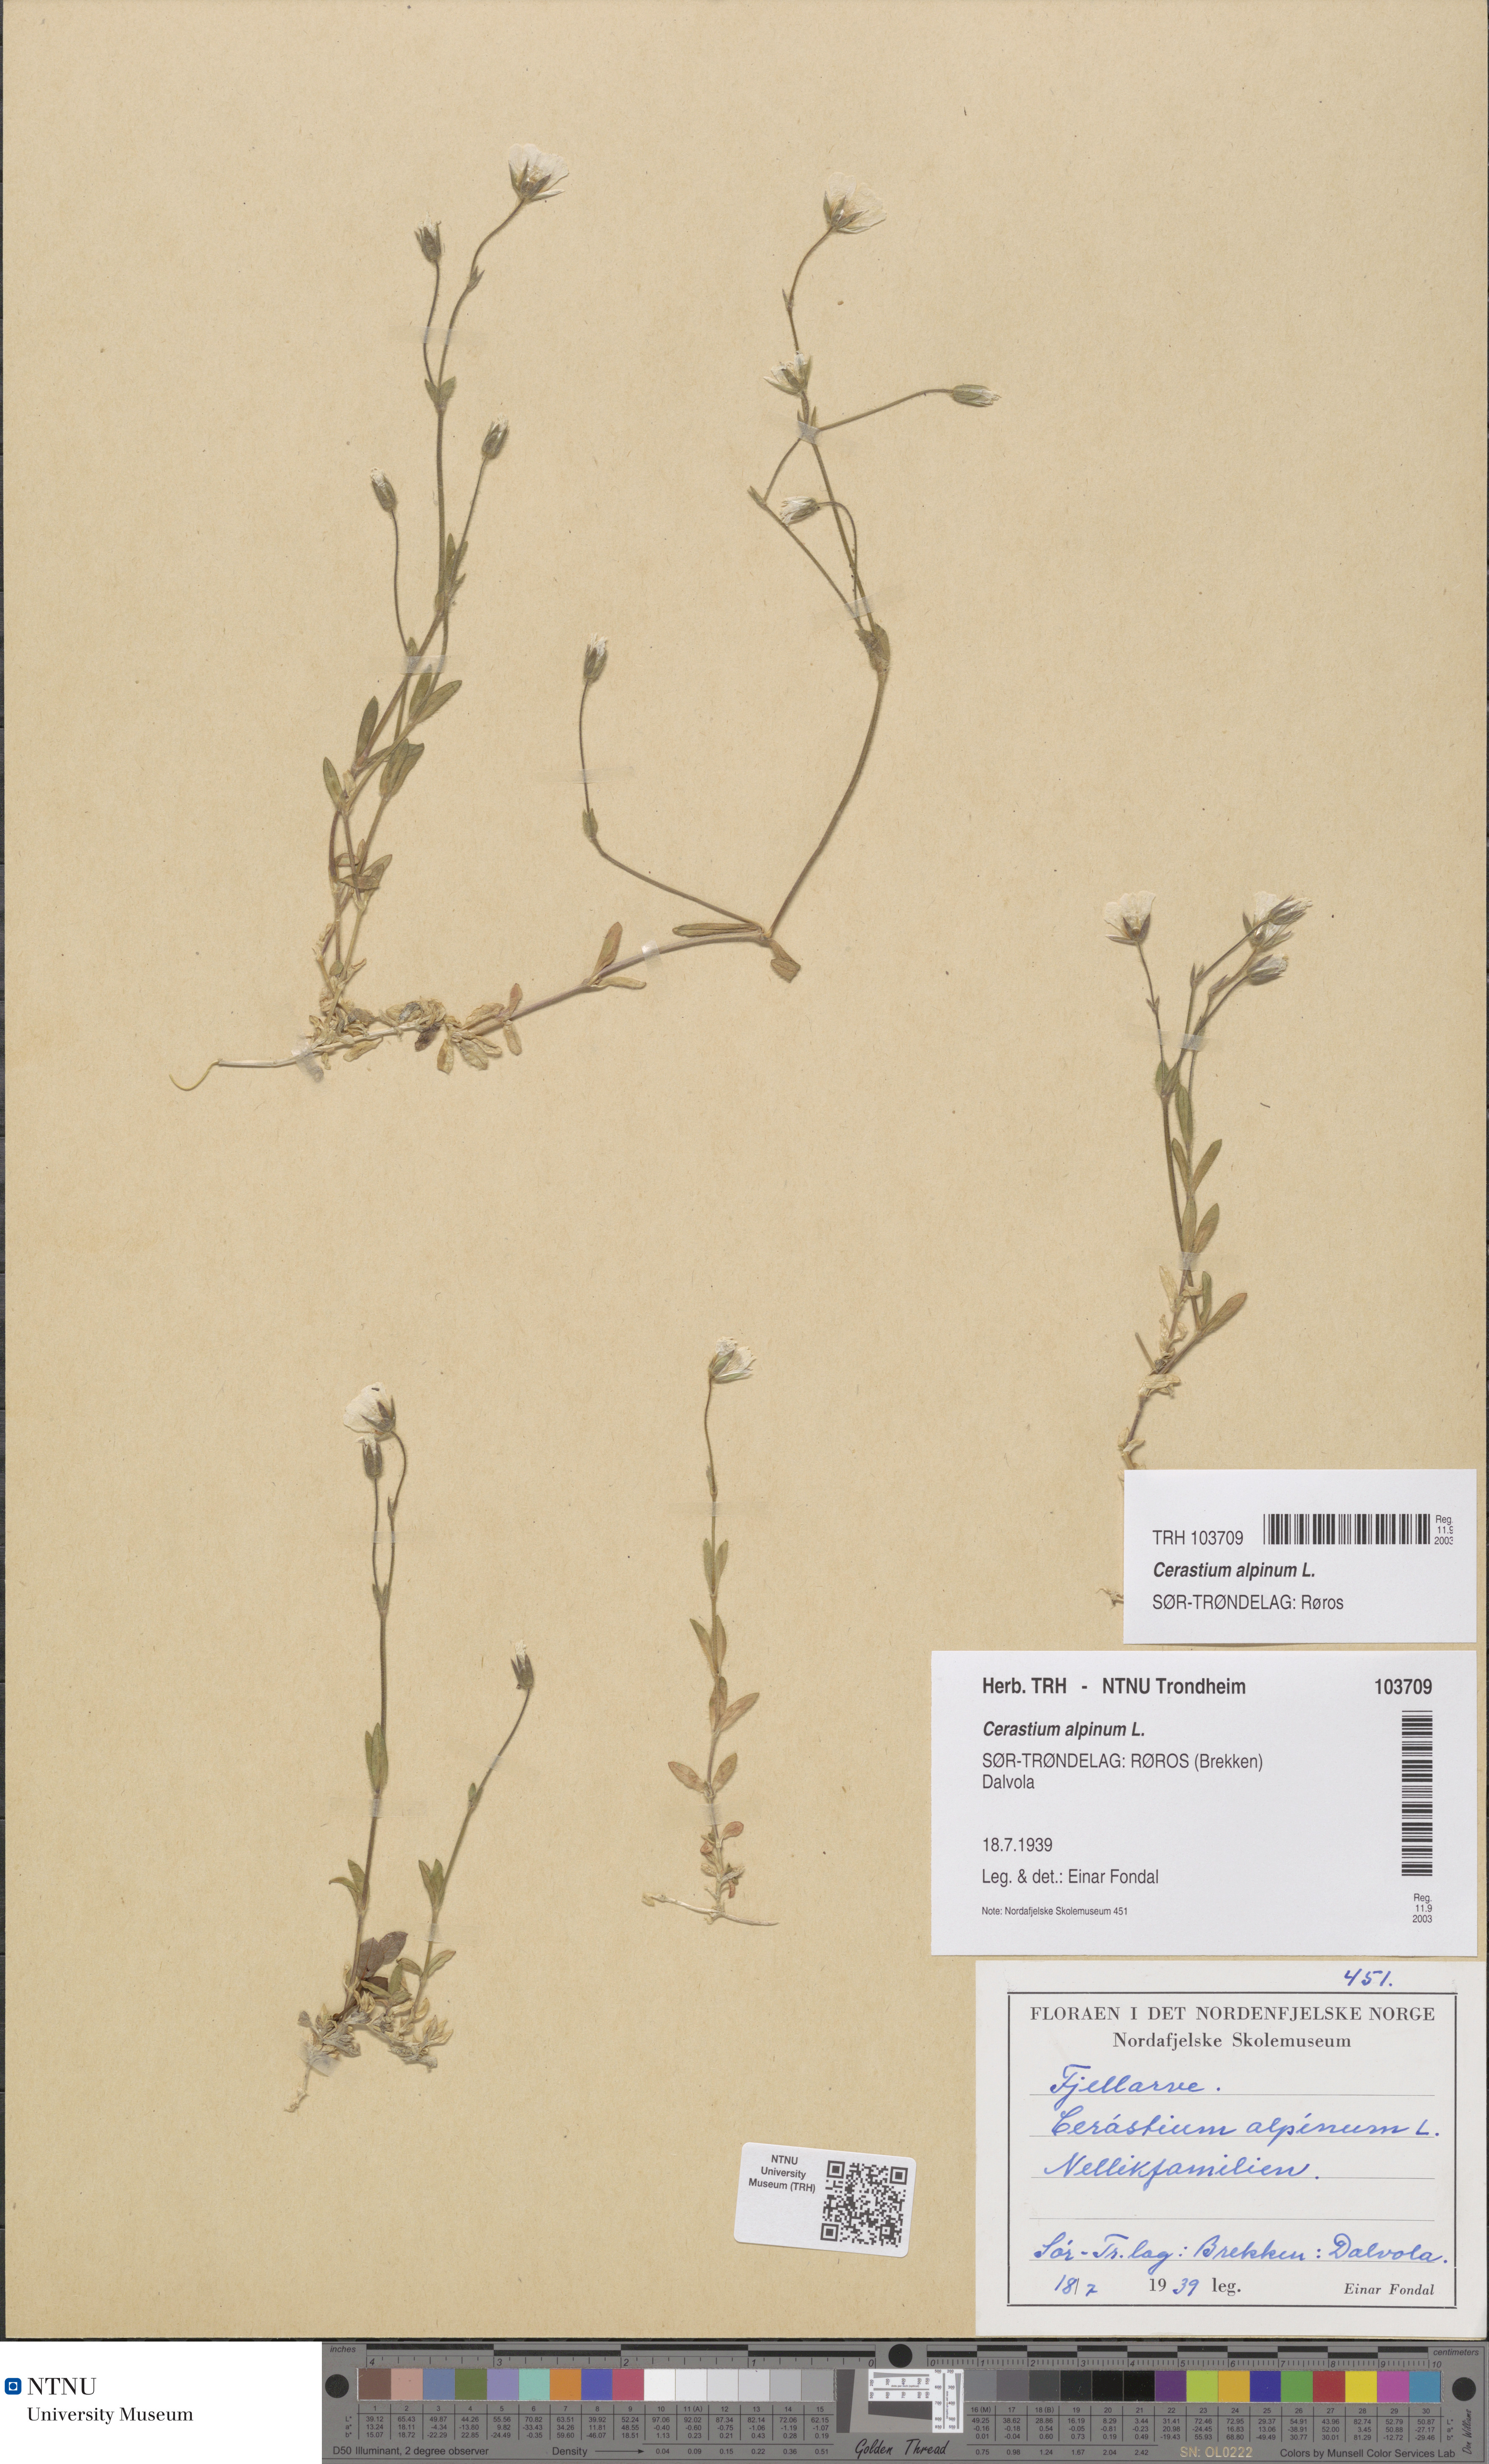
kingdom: Plantae
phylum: Tracheophyta
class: Magnoliopsida
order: Caryophyllales
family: Caryophyllaceae
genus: Cerastium
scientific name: Cerastium alpinum
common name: Alpine mouse-ear
